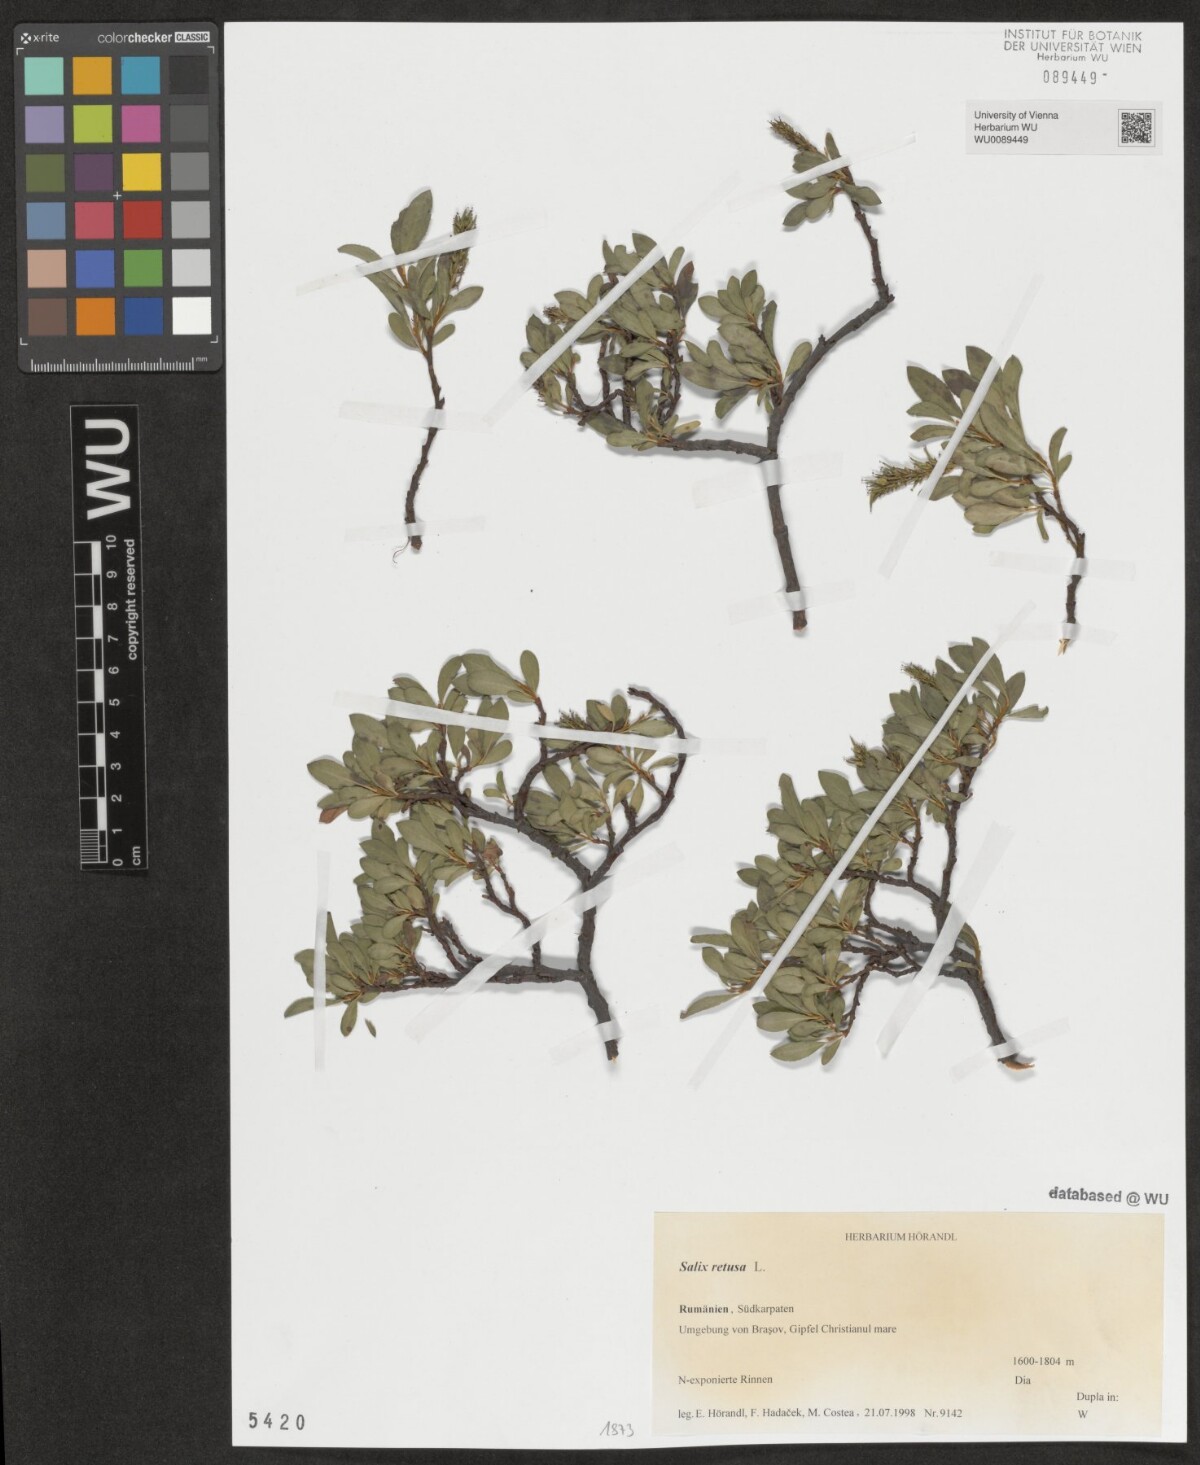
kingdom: Plantae
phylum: Tracheophyta
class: Magnoliopsida
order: Malpighiales
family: Salicaceae
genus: Salix
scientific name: Salix retusa
